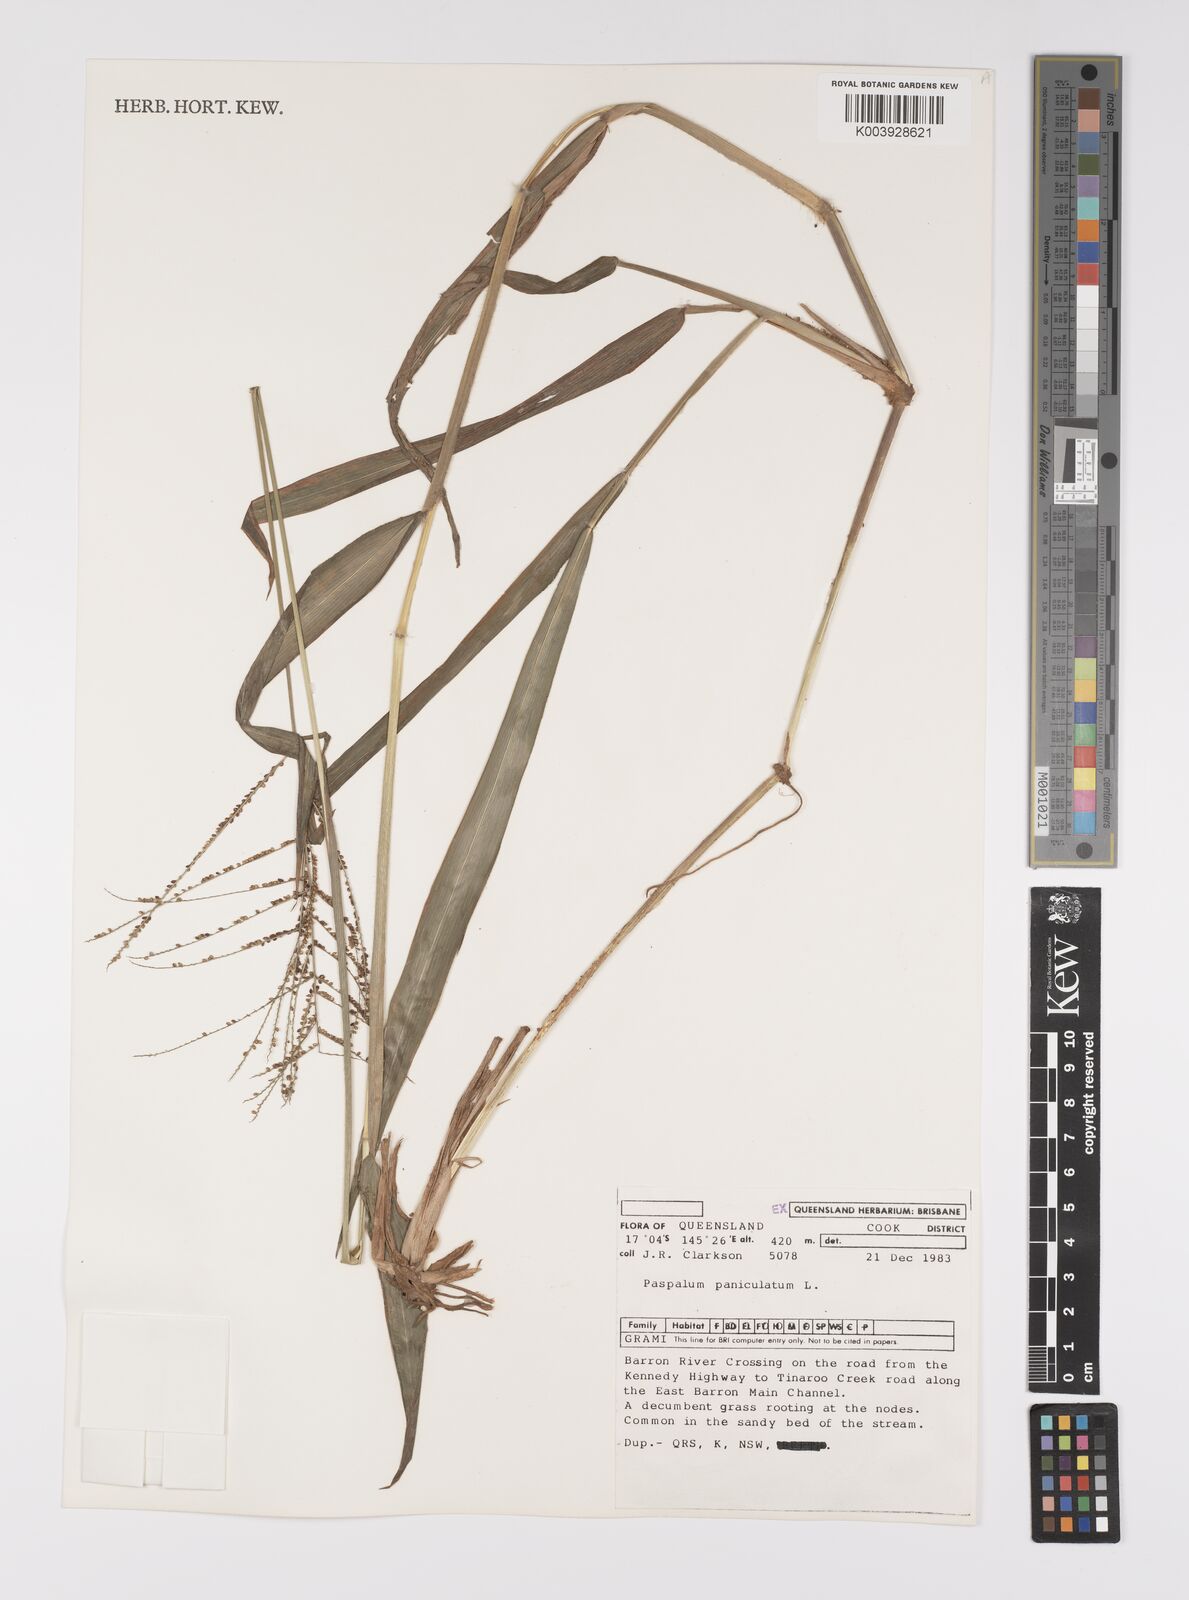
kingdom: Plantae
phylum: Tracheophyta
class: Liliopsida
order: Poales
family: Poaceae
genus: Paspalum
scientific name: Paspalum paniculatum
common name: Arrocillo
